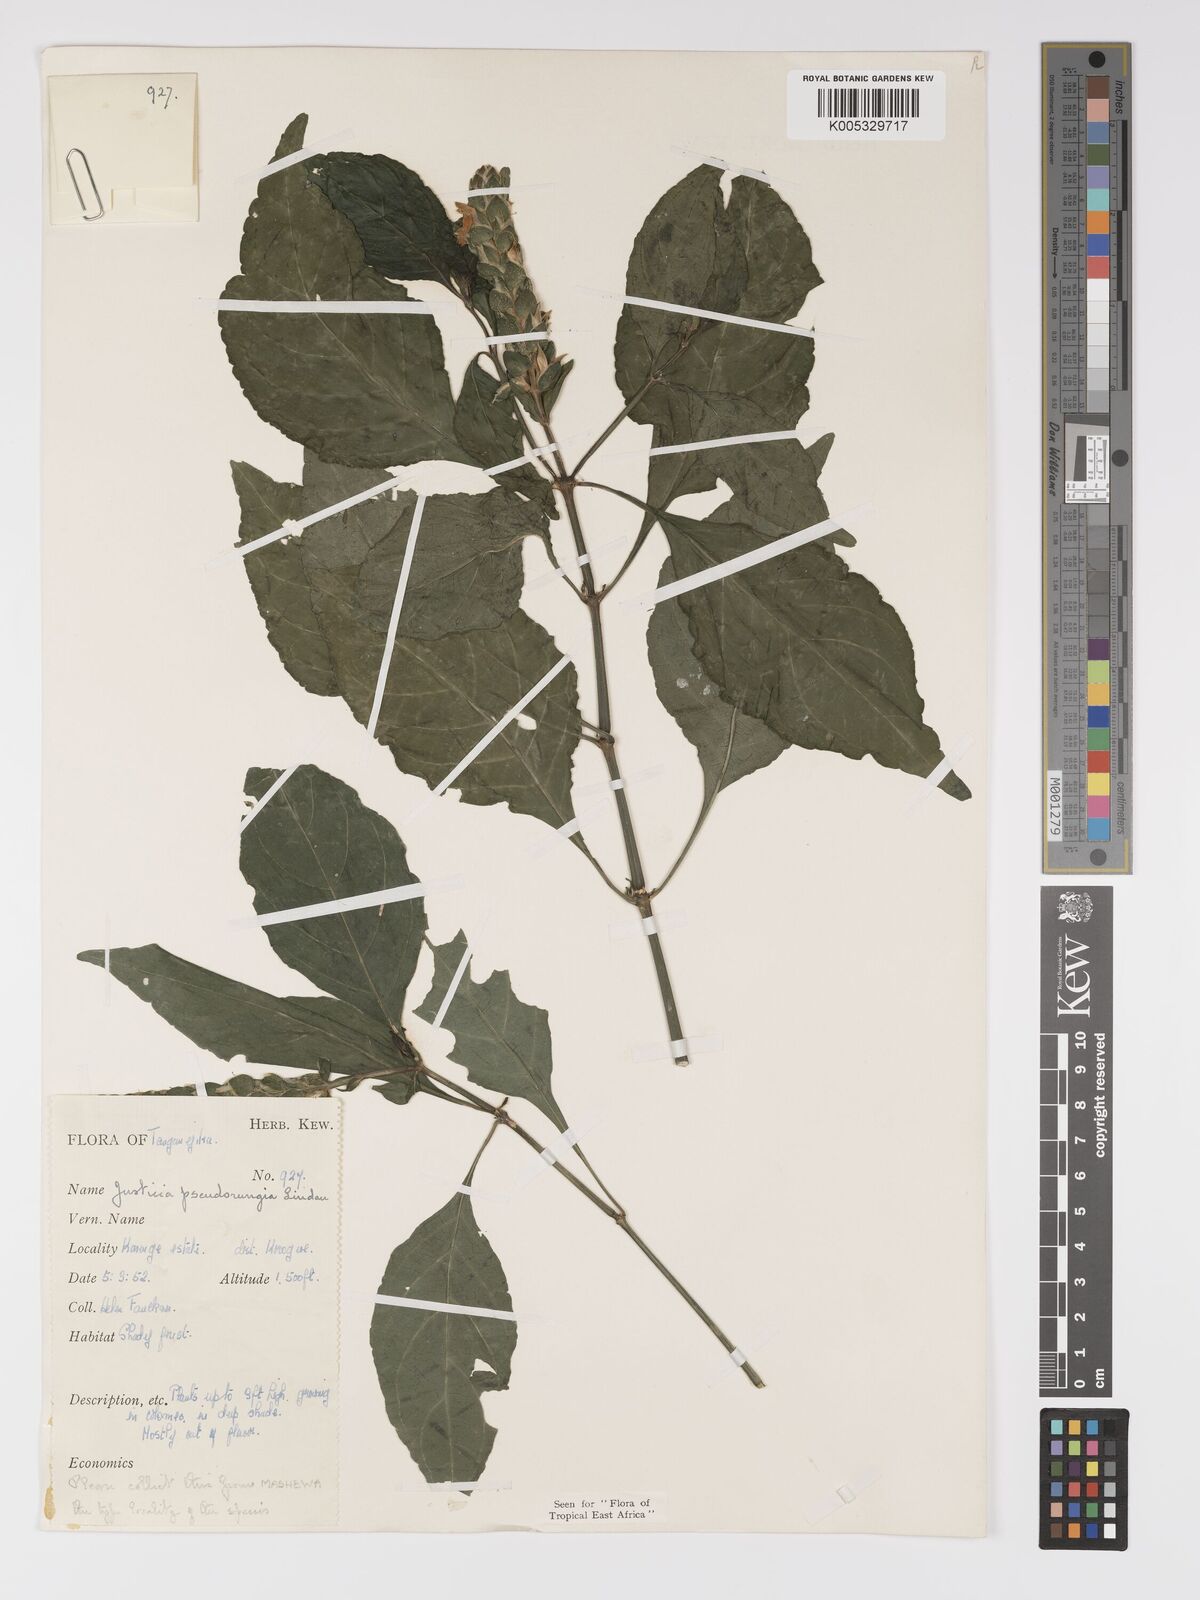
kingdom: Plantae
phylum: Tracheophyta
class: Magnoliopsida
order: Lamiales
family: Acanthaceae
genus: Justicia
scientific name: Justicia pseudorungia
